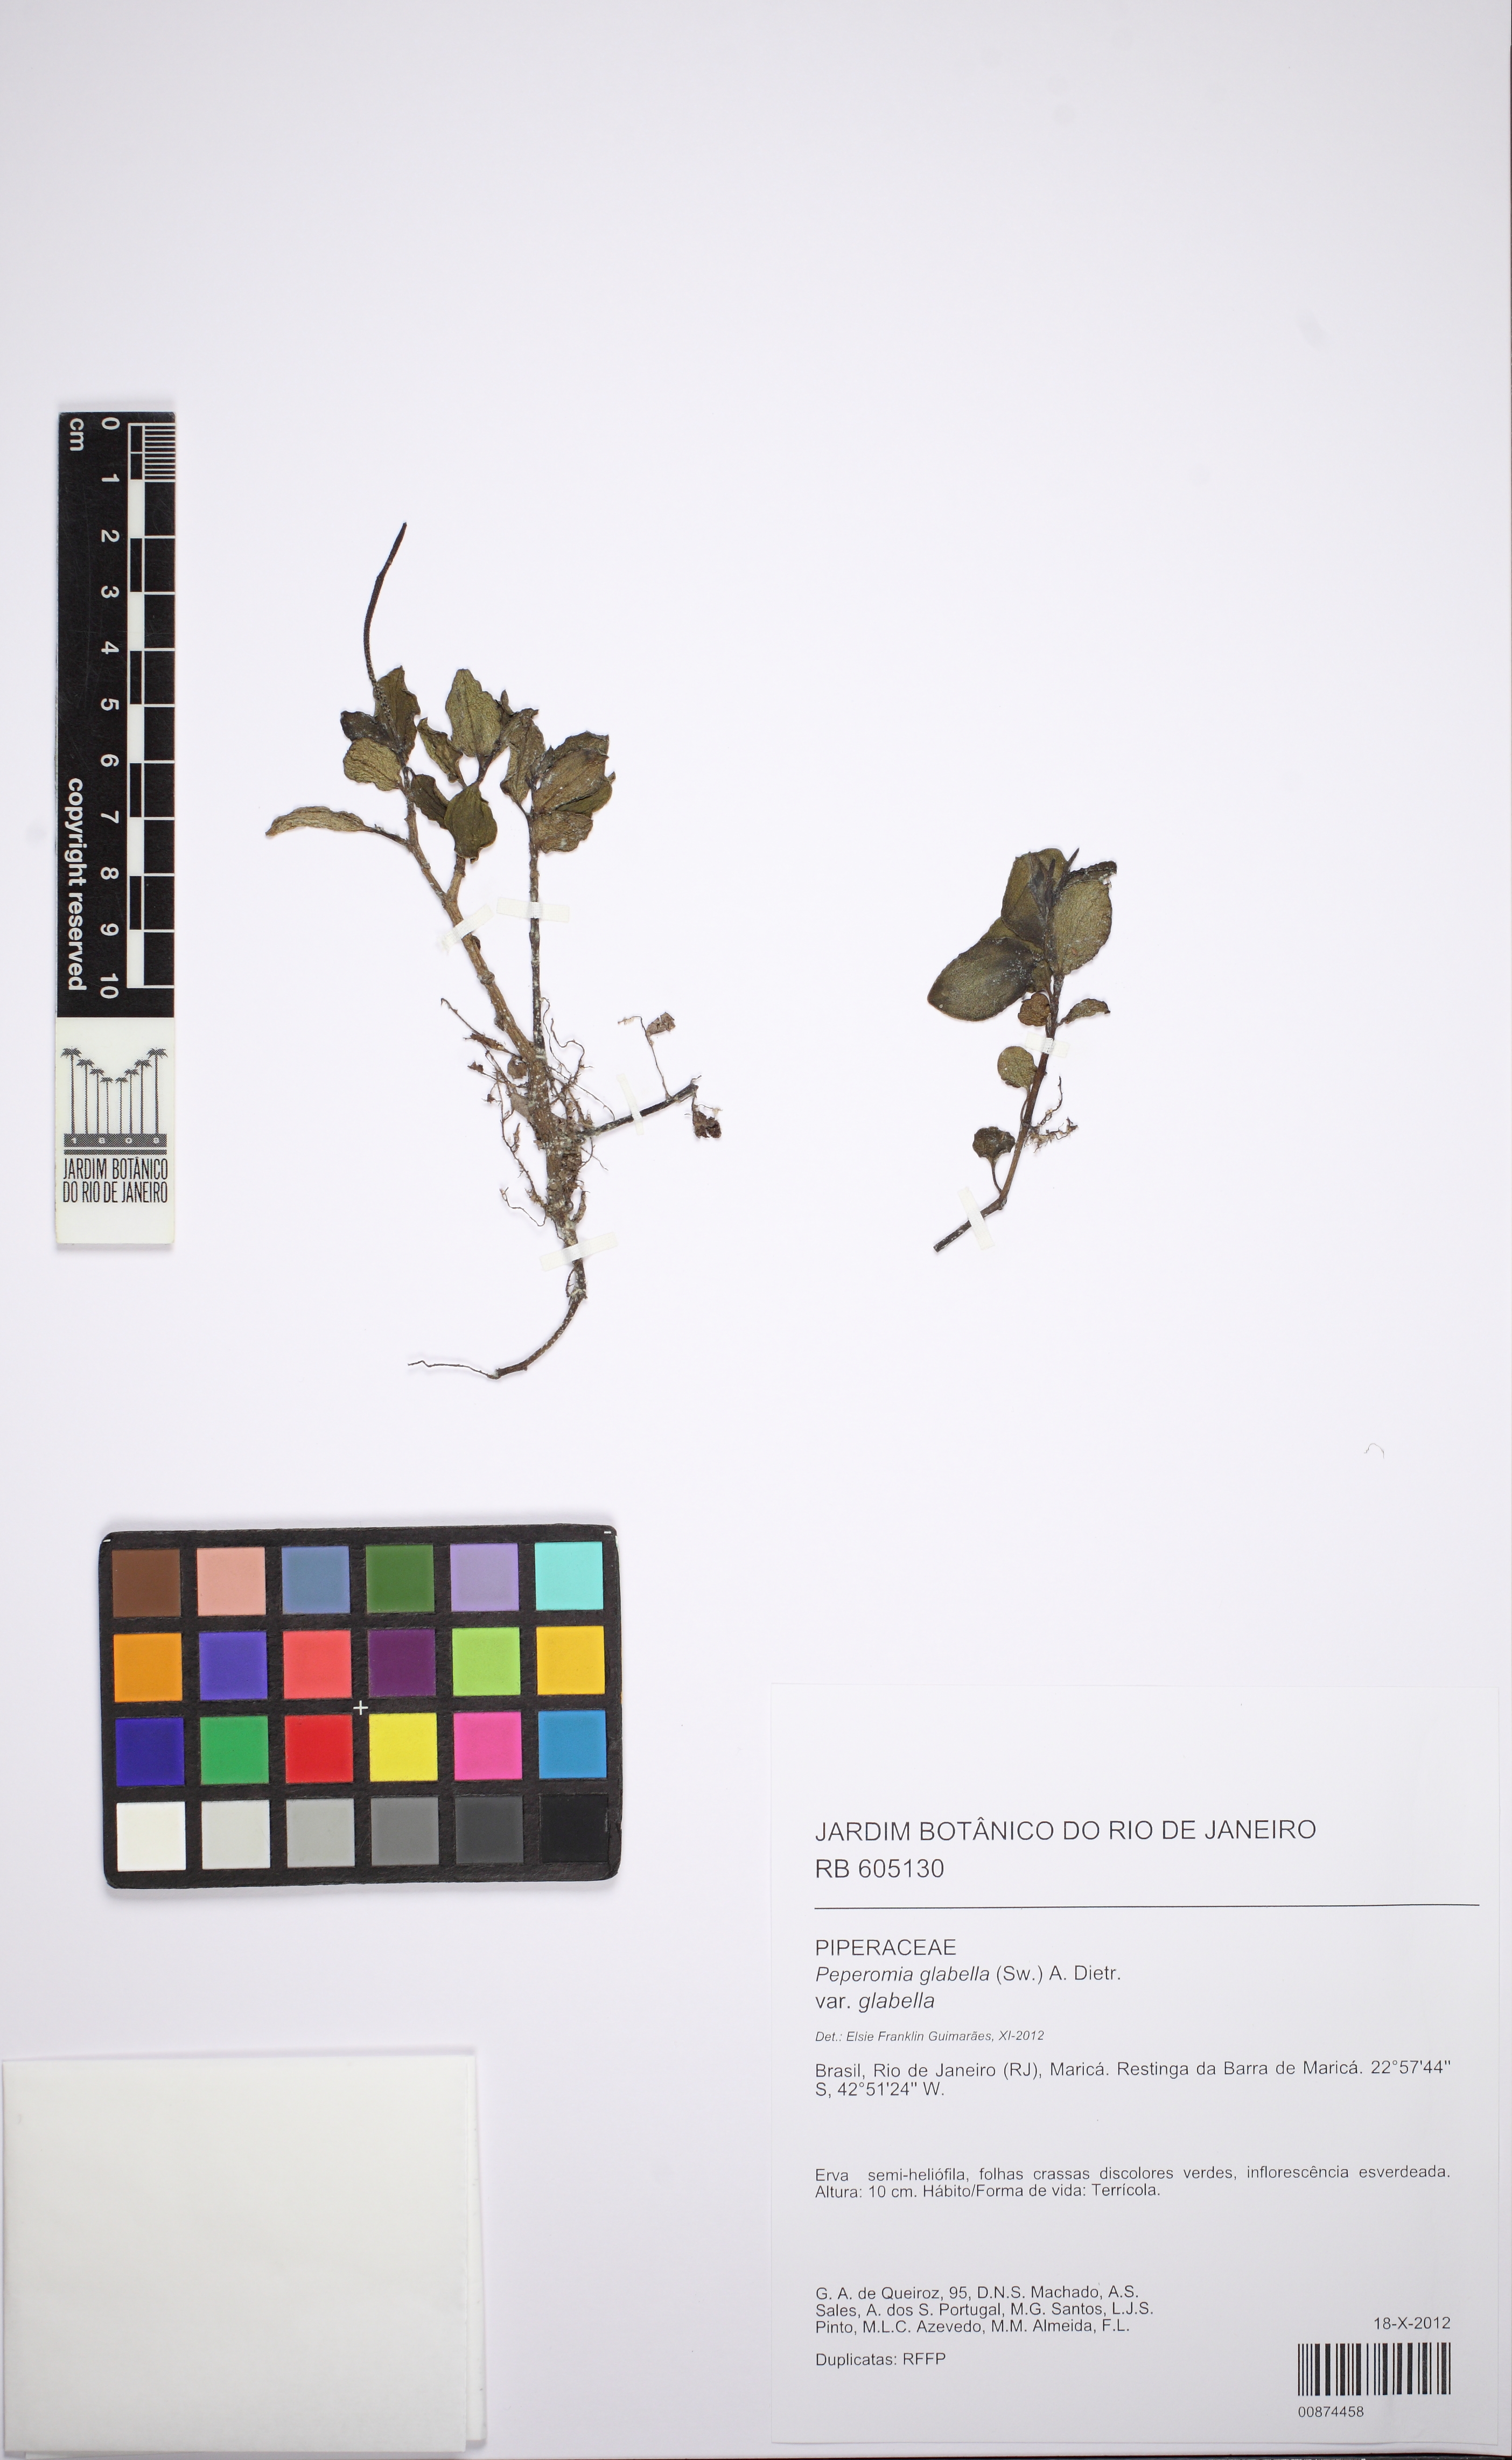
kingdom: Plantae
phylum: Tracheophyta
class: Magnoliopsida
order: Piperales
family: Piperaceae
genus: Peperomia
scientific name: Peperomia glabella
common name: Cypress peperomia
